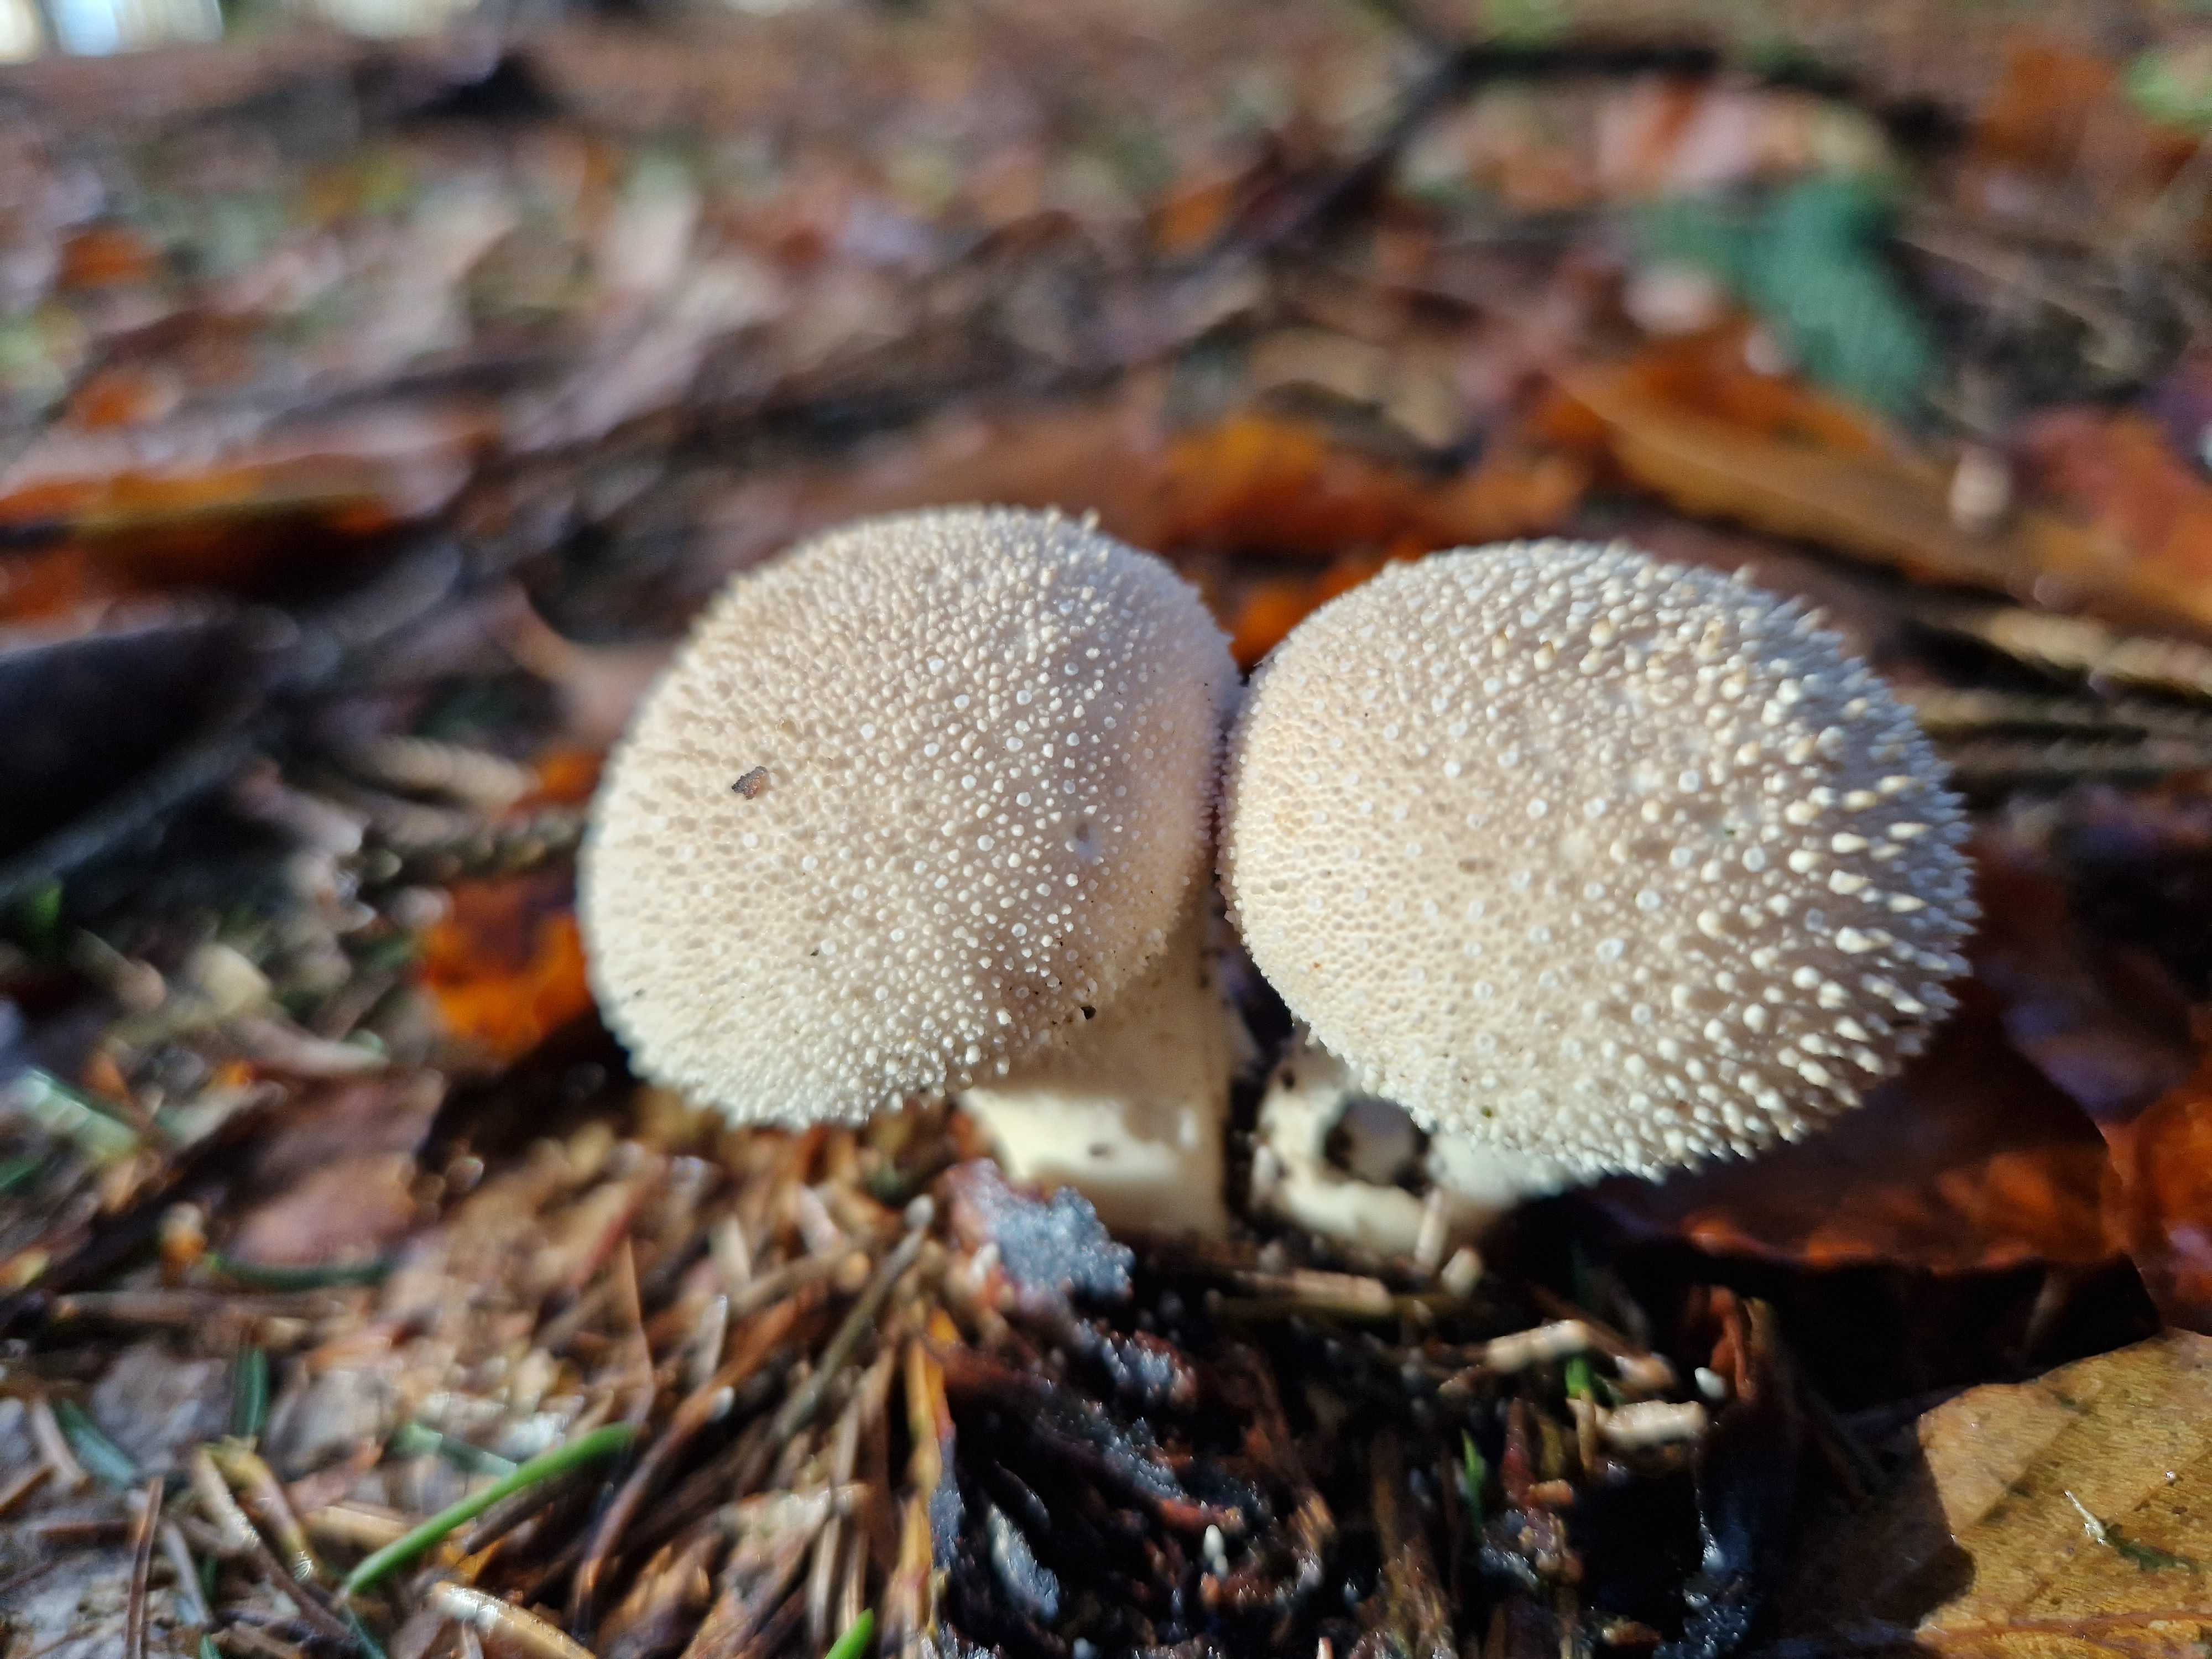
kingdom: Fungi
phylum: Basidiomycota
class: Agaricomycetes
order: Agaricales
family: Lycoperdaceae
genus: Lycoperdon
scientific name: Lycoperdon perlatum
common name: krystal-støvbold
